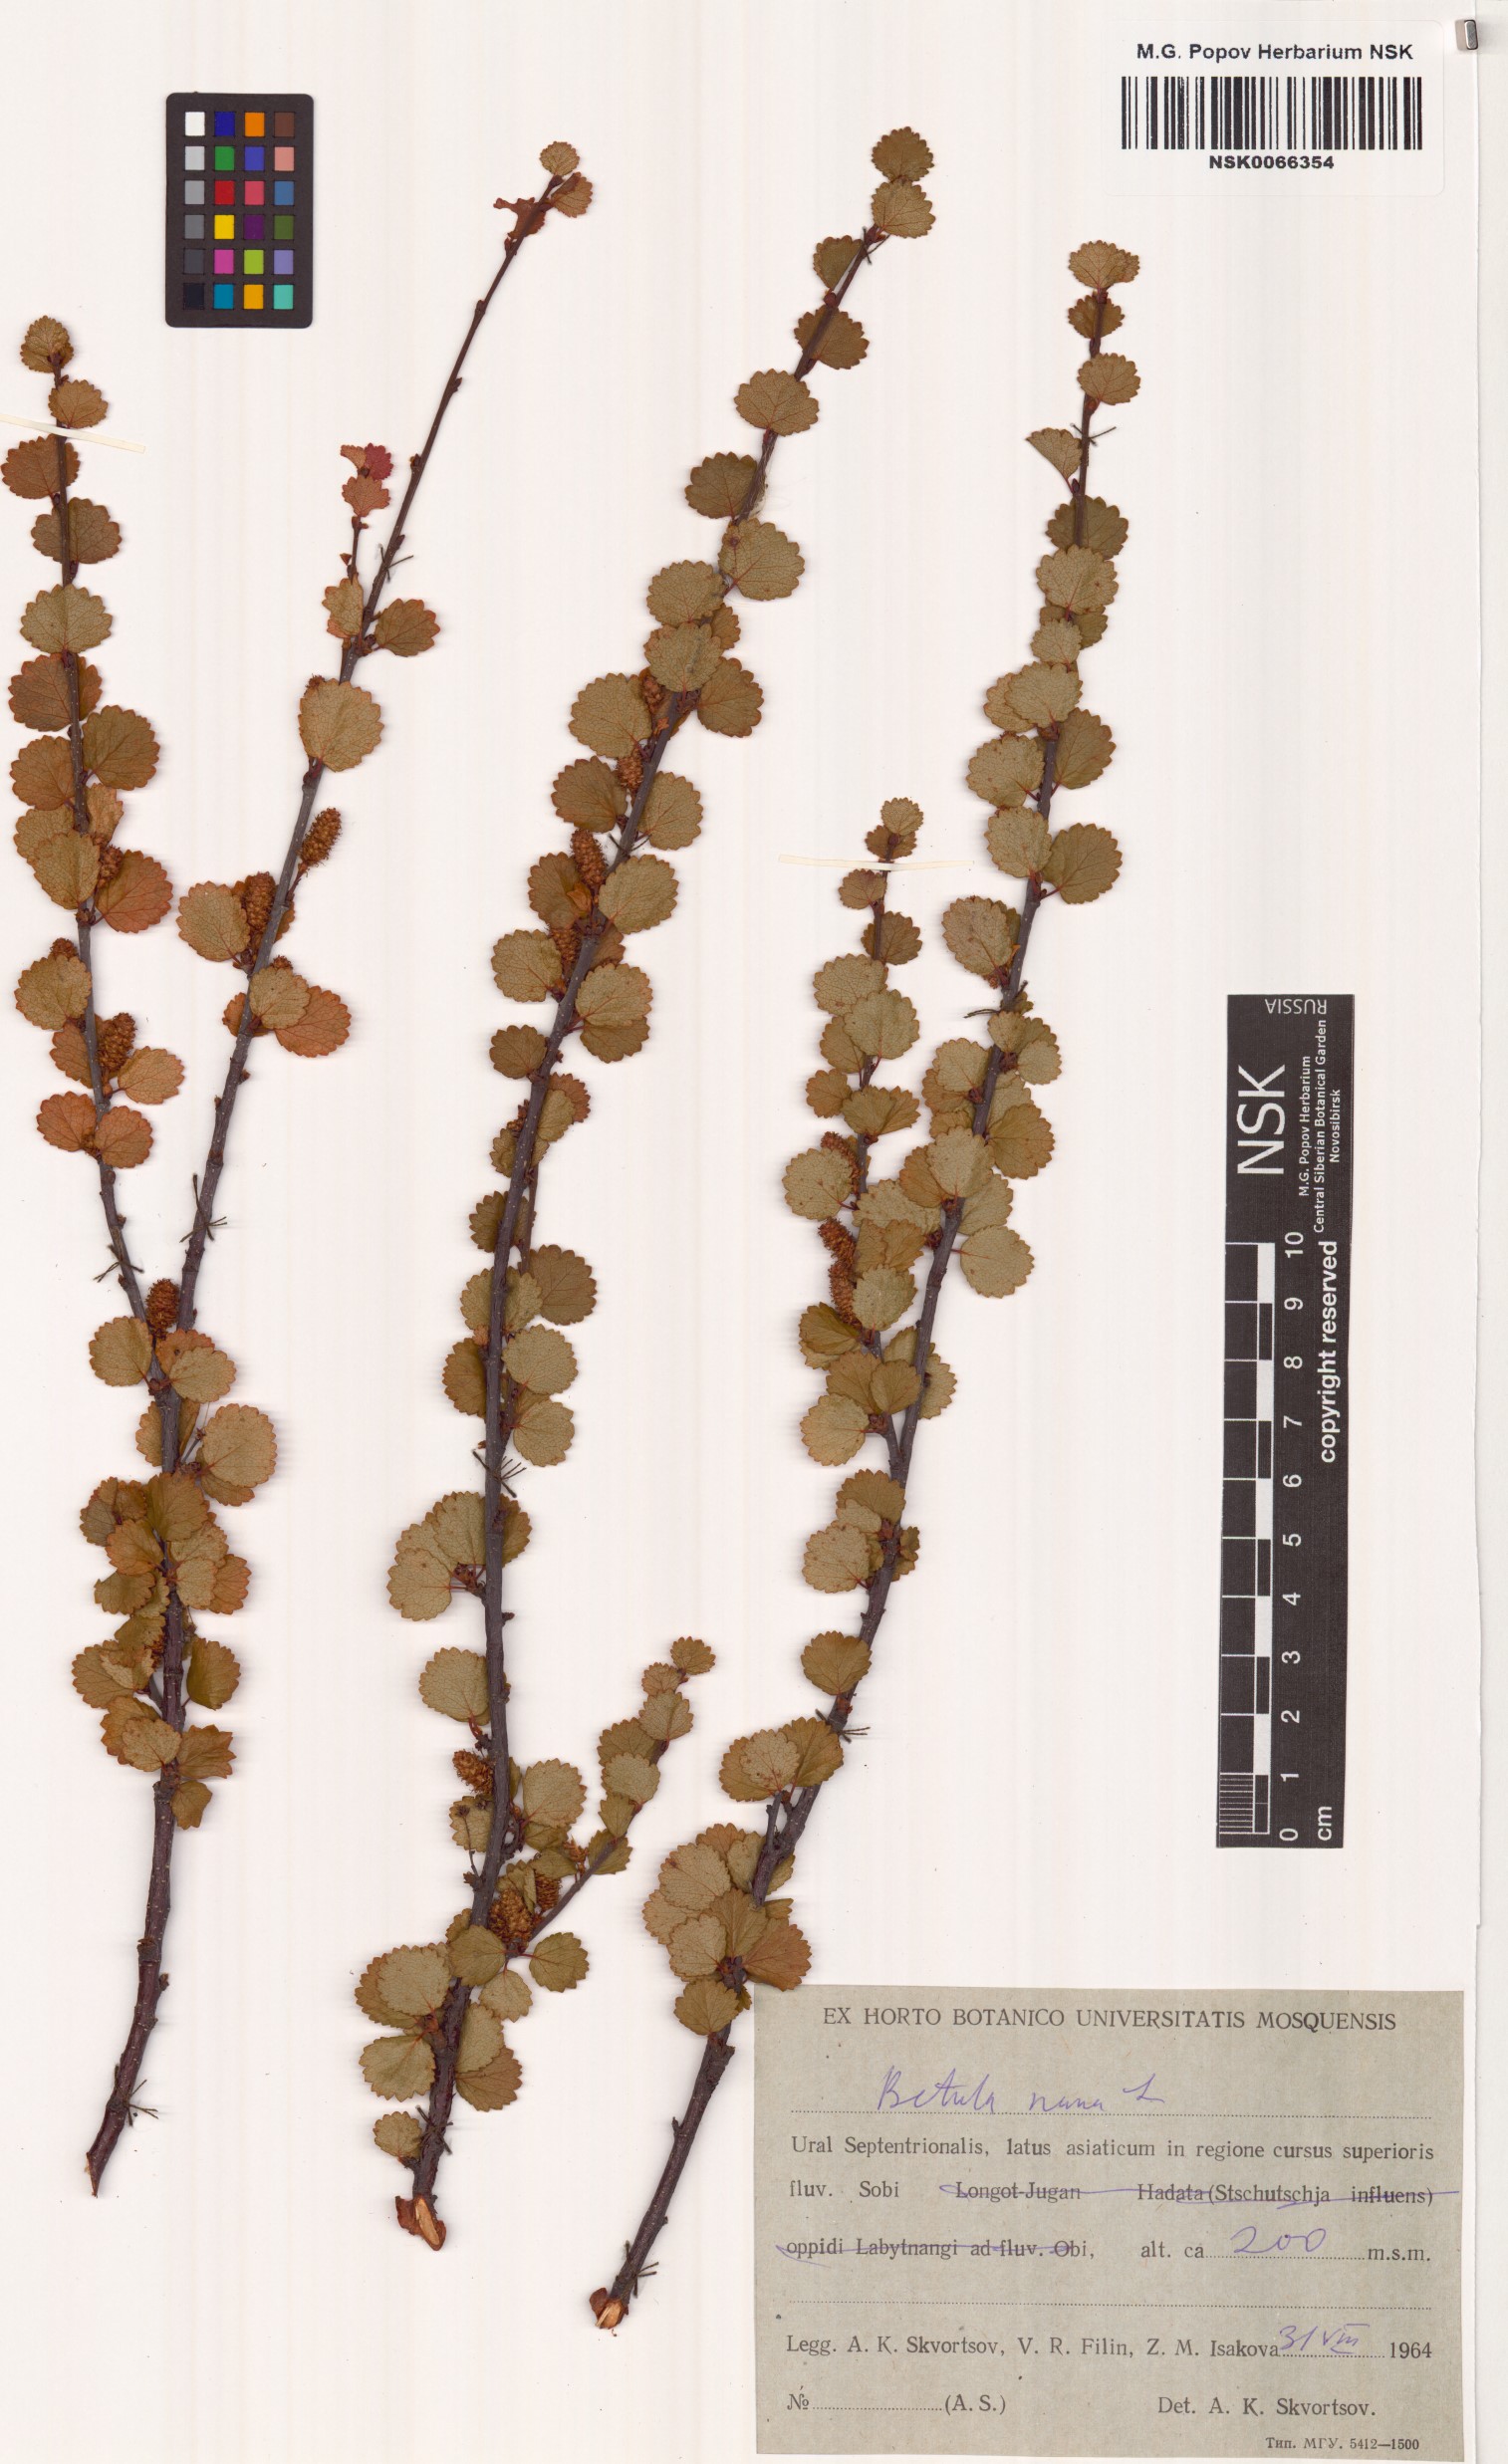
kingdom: Plantae
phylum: Tracheophyta
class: Magnoliopsida
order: Fagales
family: Betulaceae
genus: Betula
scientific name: Betula nana
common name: Arctic dwarf birch
